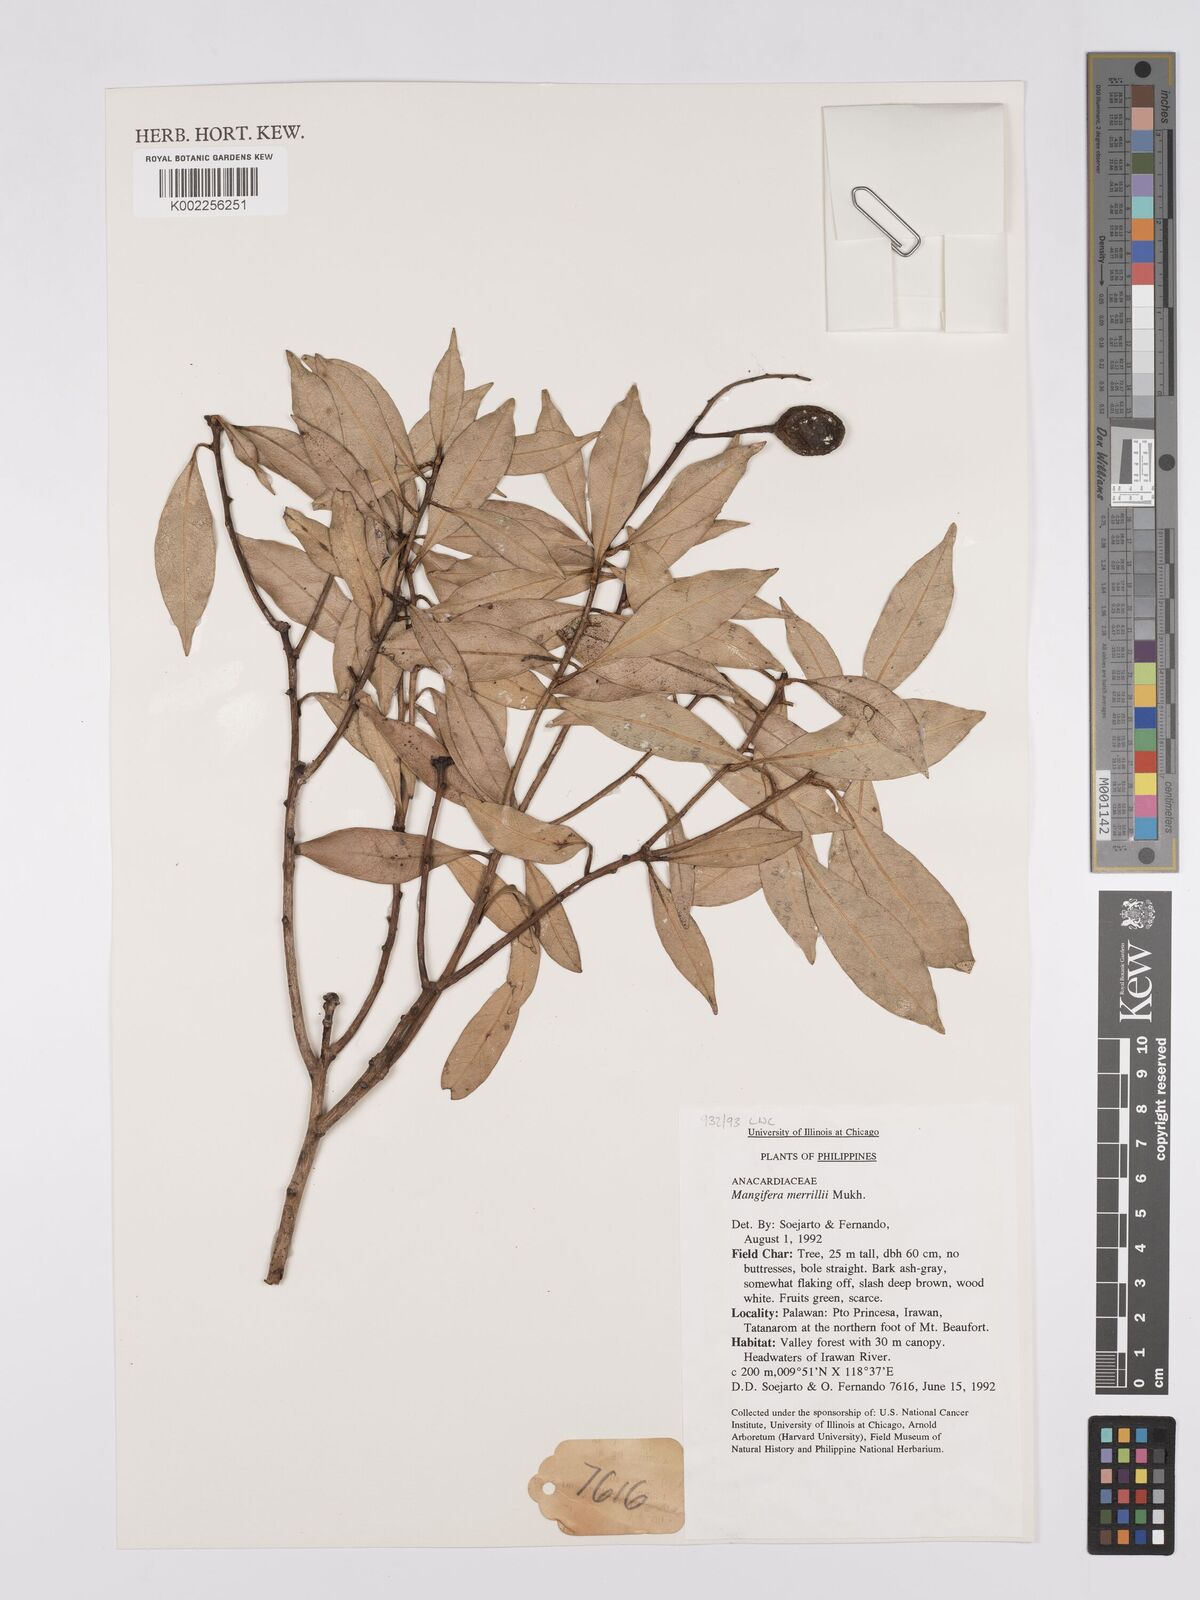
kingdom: Plantae
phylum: Tracheophyta
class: Magnoliopsida
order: Sapindales
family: Anacardiaceae
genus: Mangifera
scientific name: Mangifera altissima
